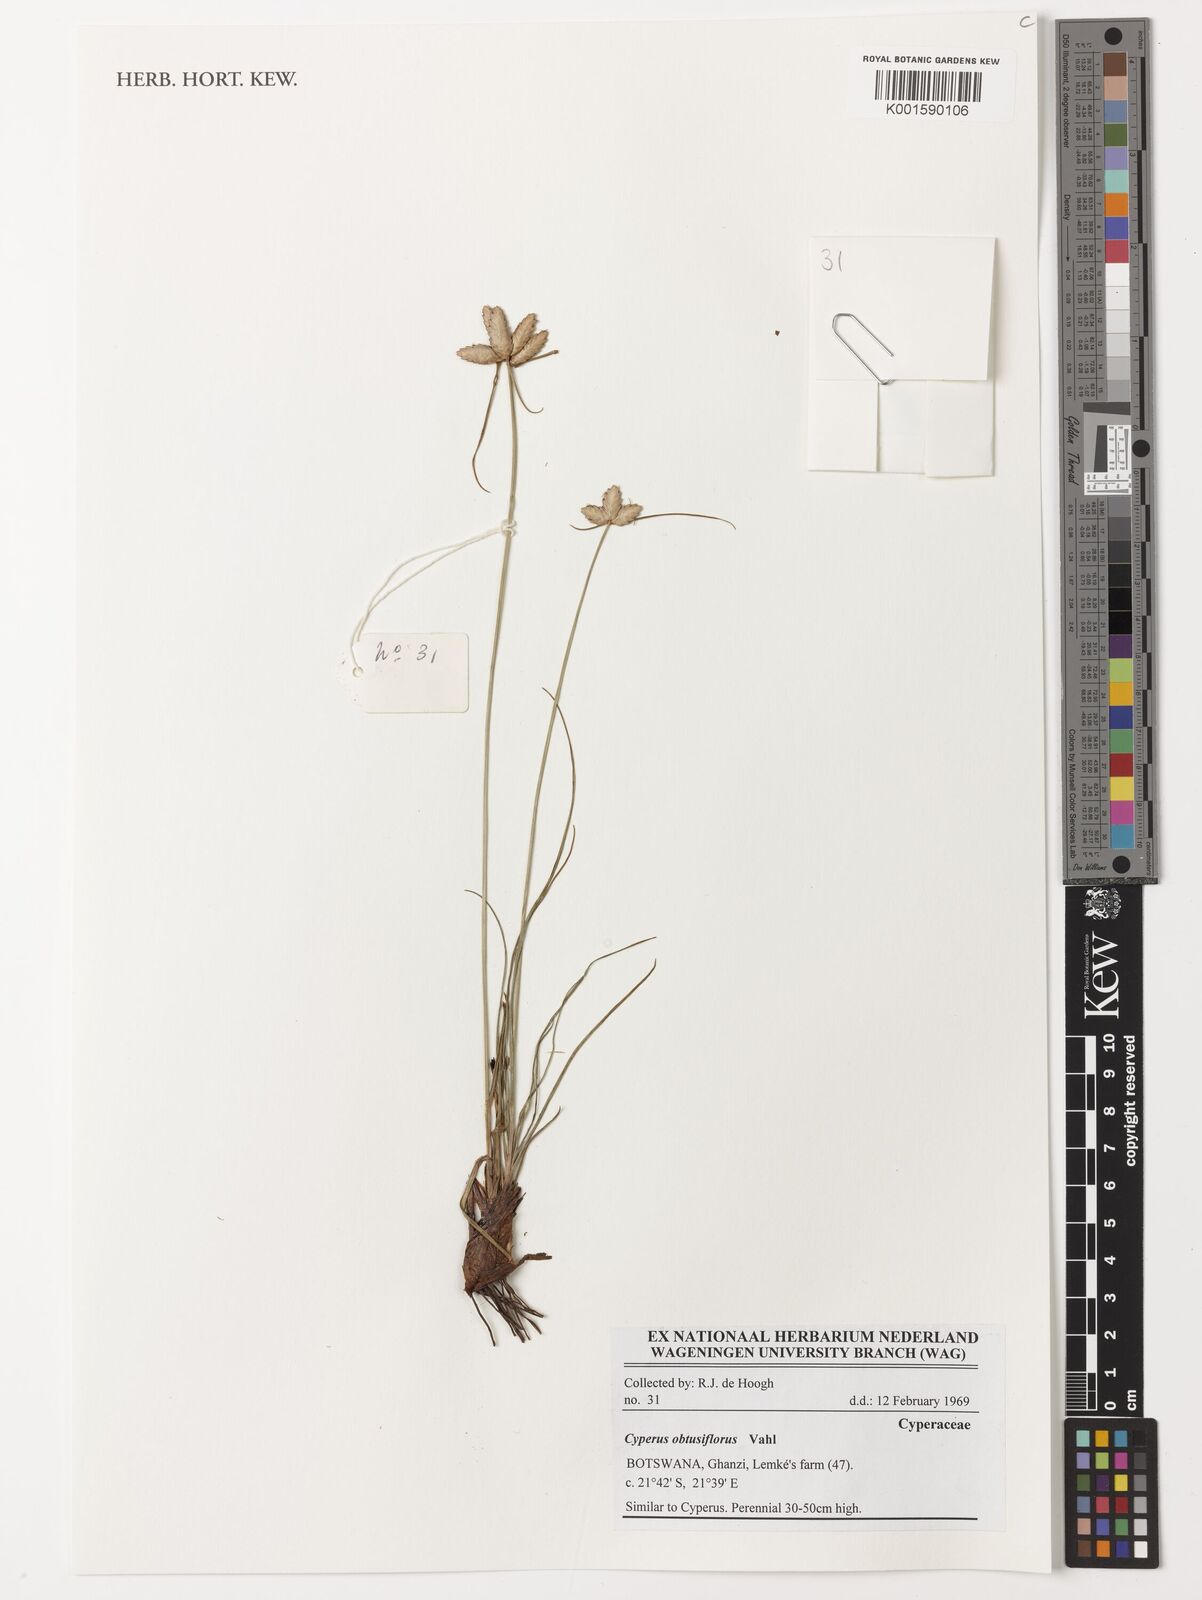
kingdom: Plantae
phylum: Tracheophyta
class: Liliopsida
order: Poales
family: Cyperaceae
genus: Cyperus
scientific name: Cyperus niveus
